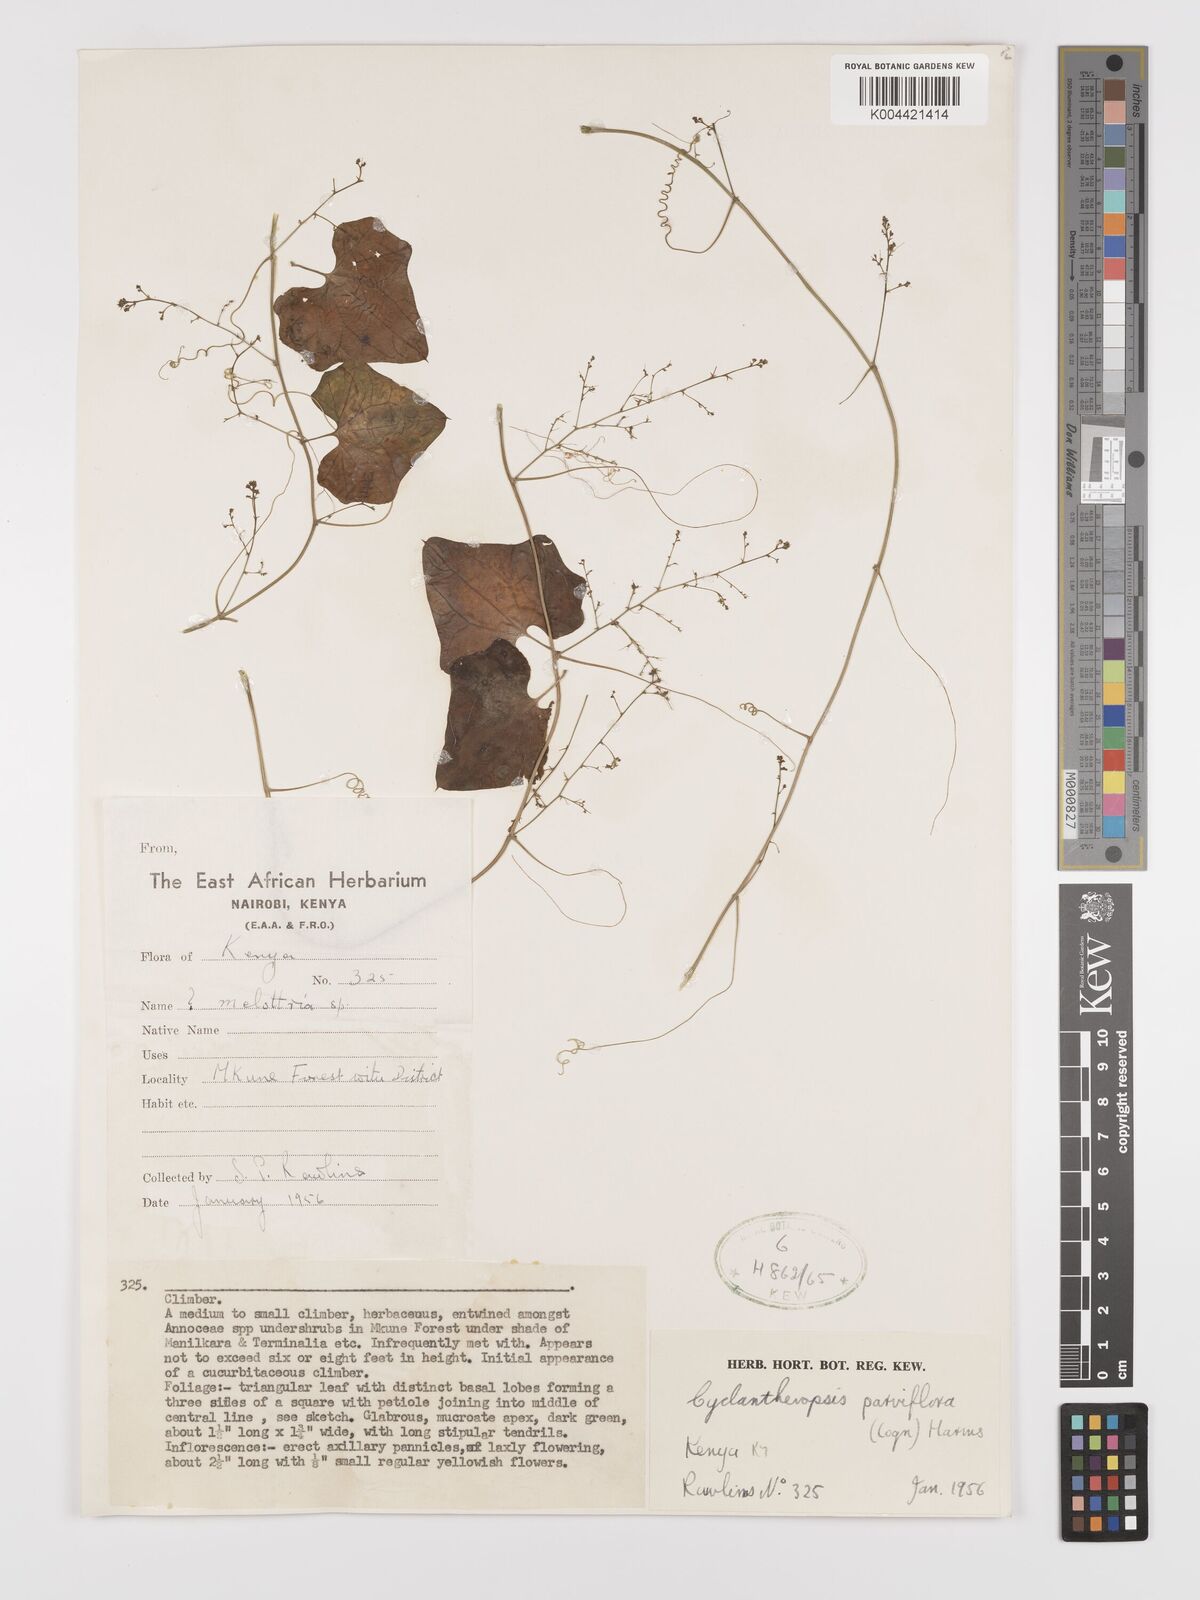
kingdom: Plantae
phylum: Tracheophyta
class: Magnoliopsida
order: Cucurbitales
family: Cucurbitaceae
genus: Cyclantheropsis
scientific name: Cyclantheropsis parviflora
